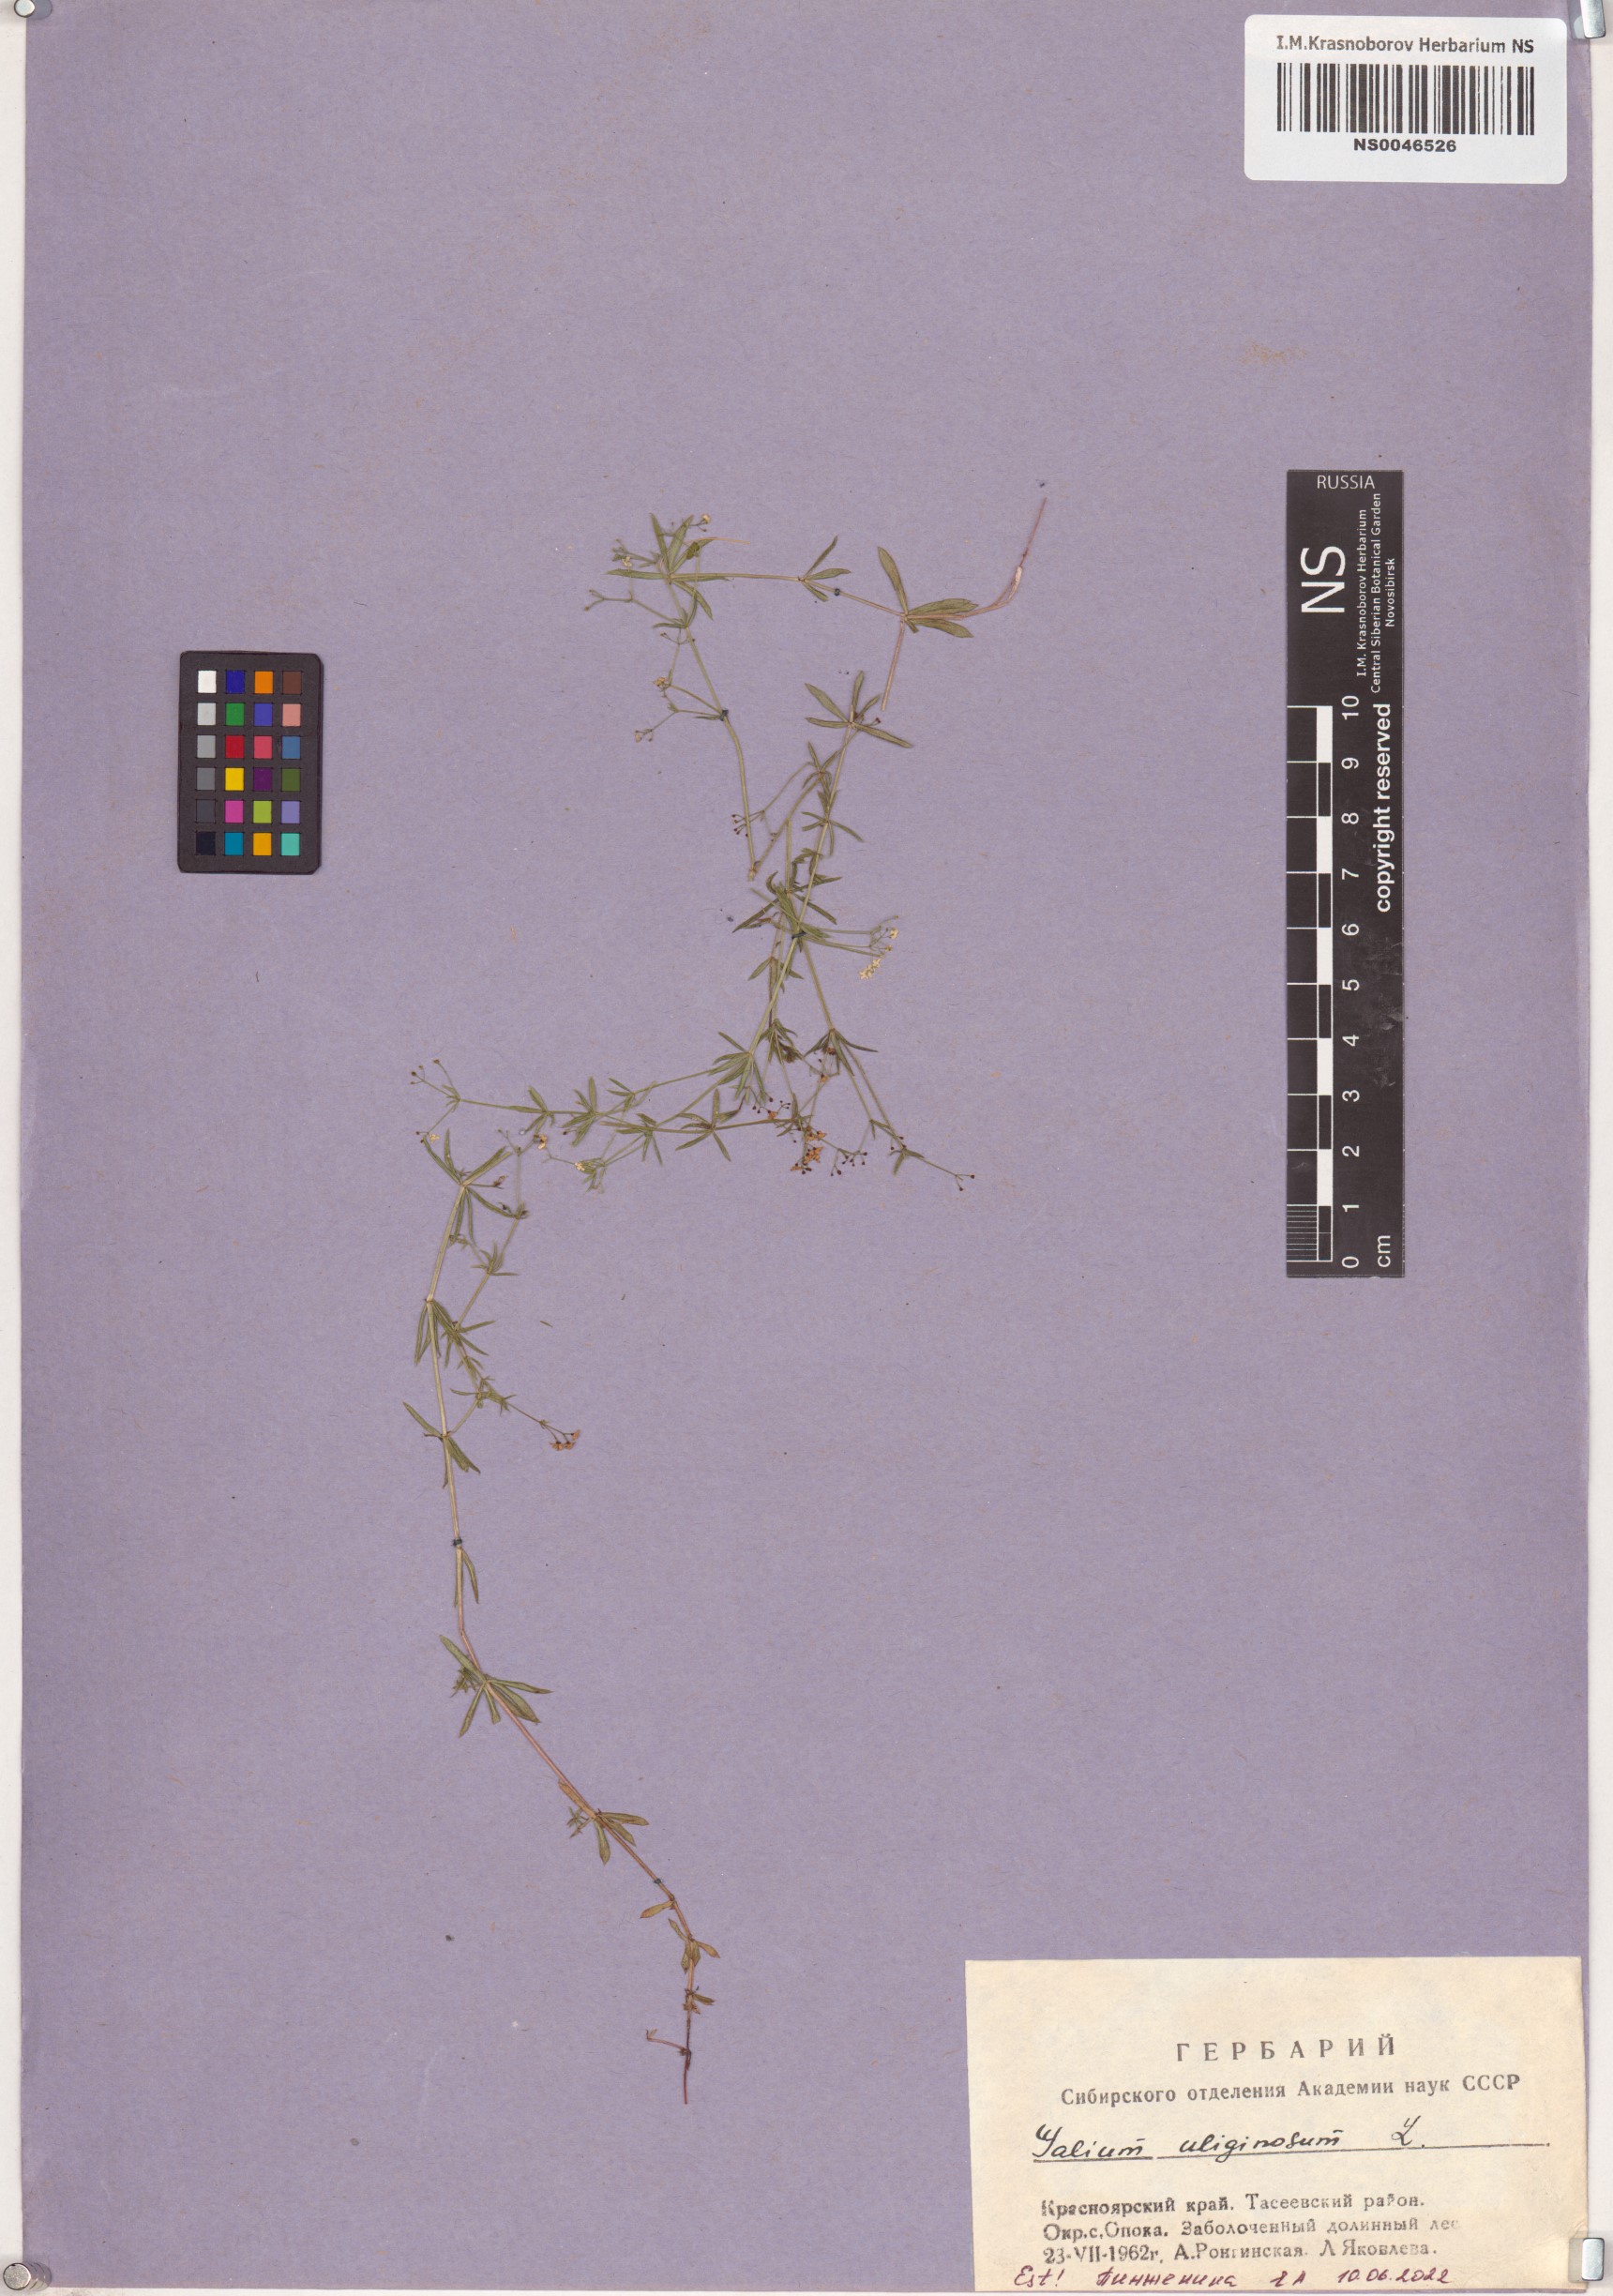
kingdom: Plantae
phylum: Tracheophyta
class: Magnoliopsida
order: Gentianales
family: Rubiaceae
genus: Galium
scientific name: Galium uliginosum
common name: Fen bedstraw
